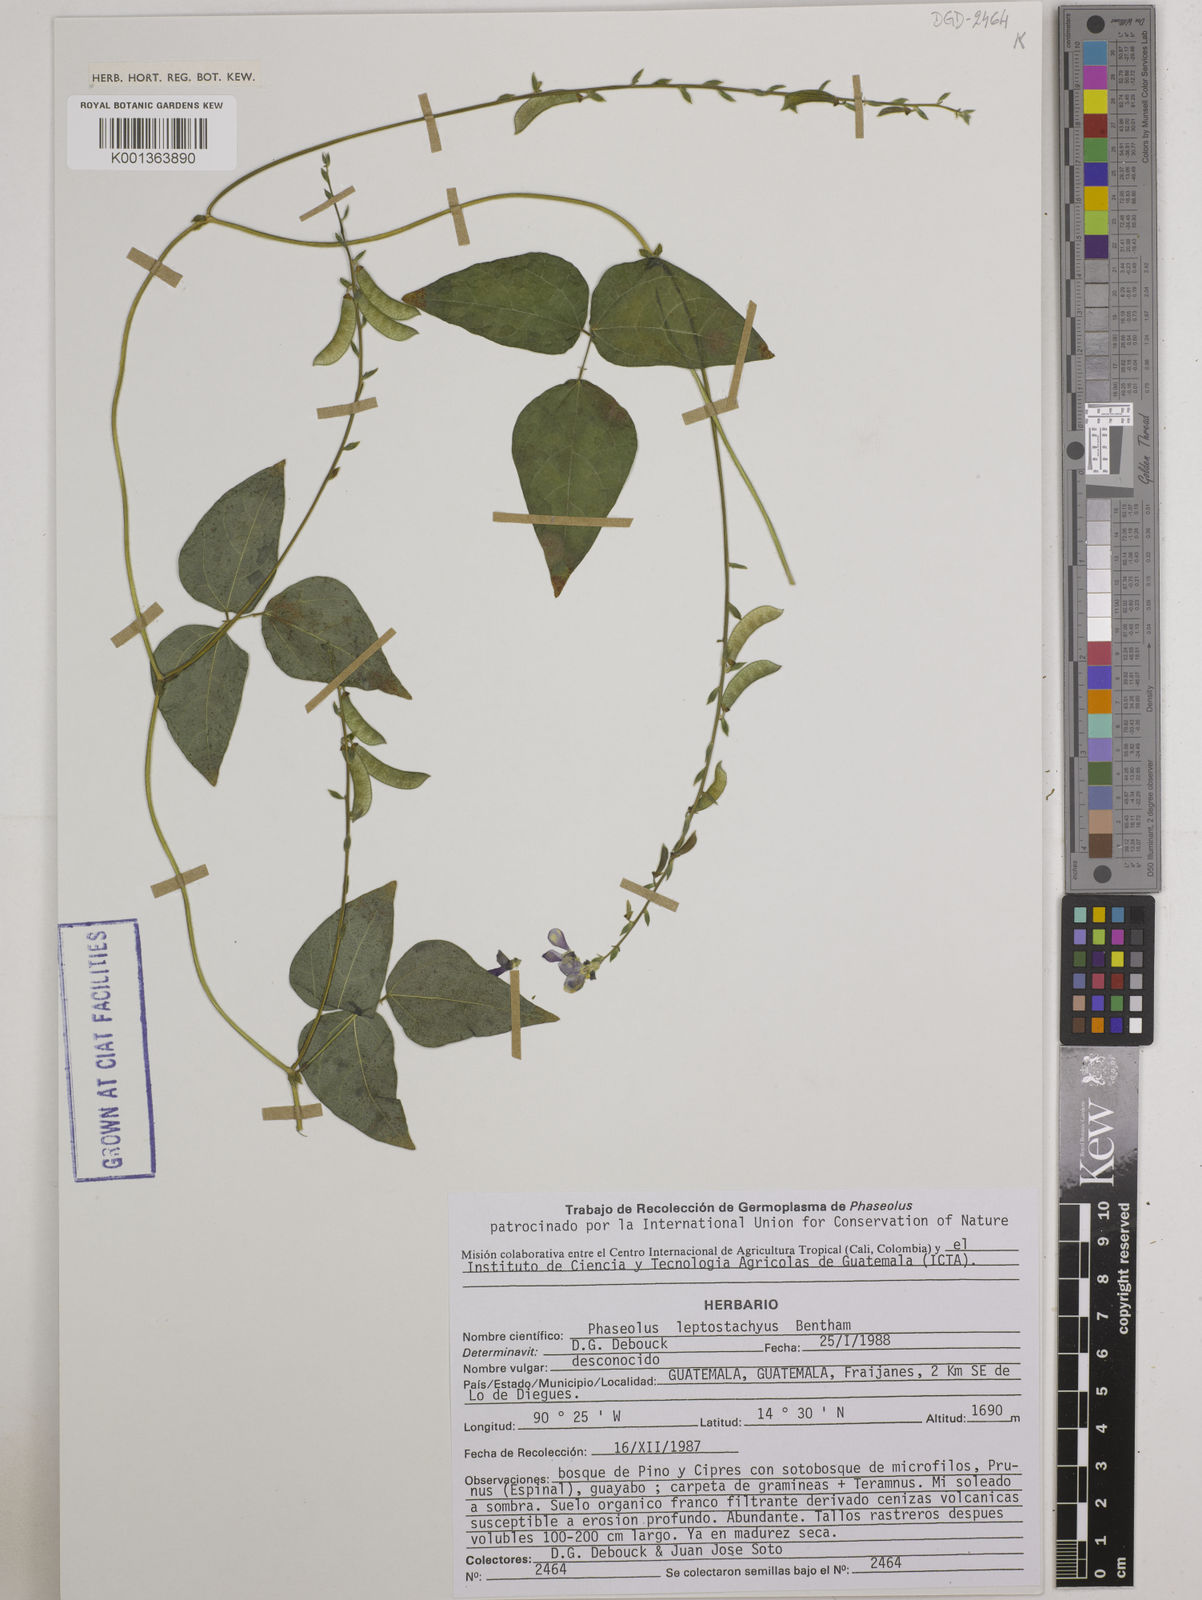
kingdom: Plantae
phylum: Tracheophyta
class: Magnoliopsida
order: Fabales
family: Fabaceae
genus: Phaseolus
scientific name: Phaseolus leptostachyus
